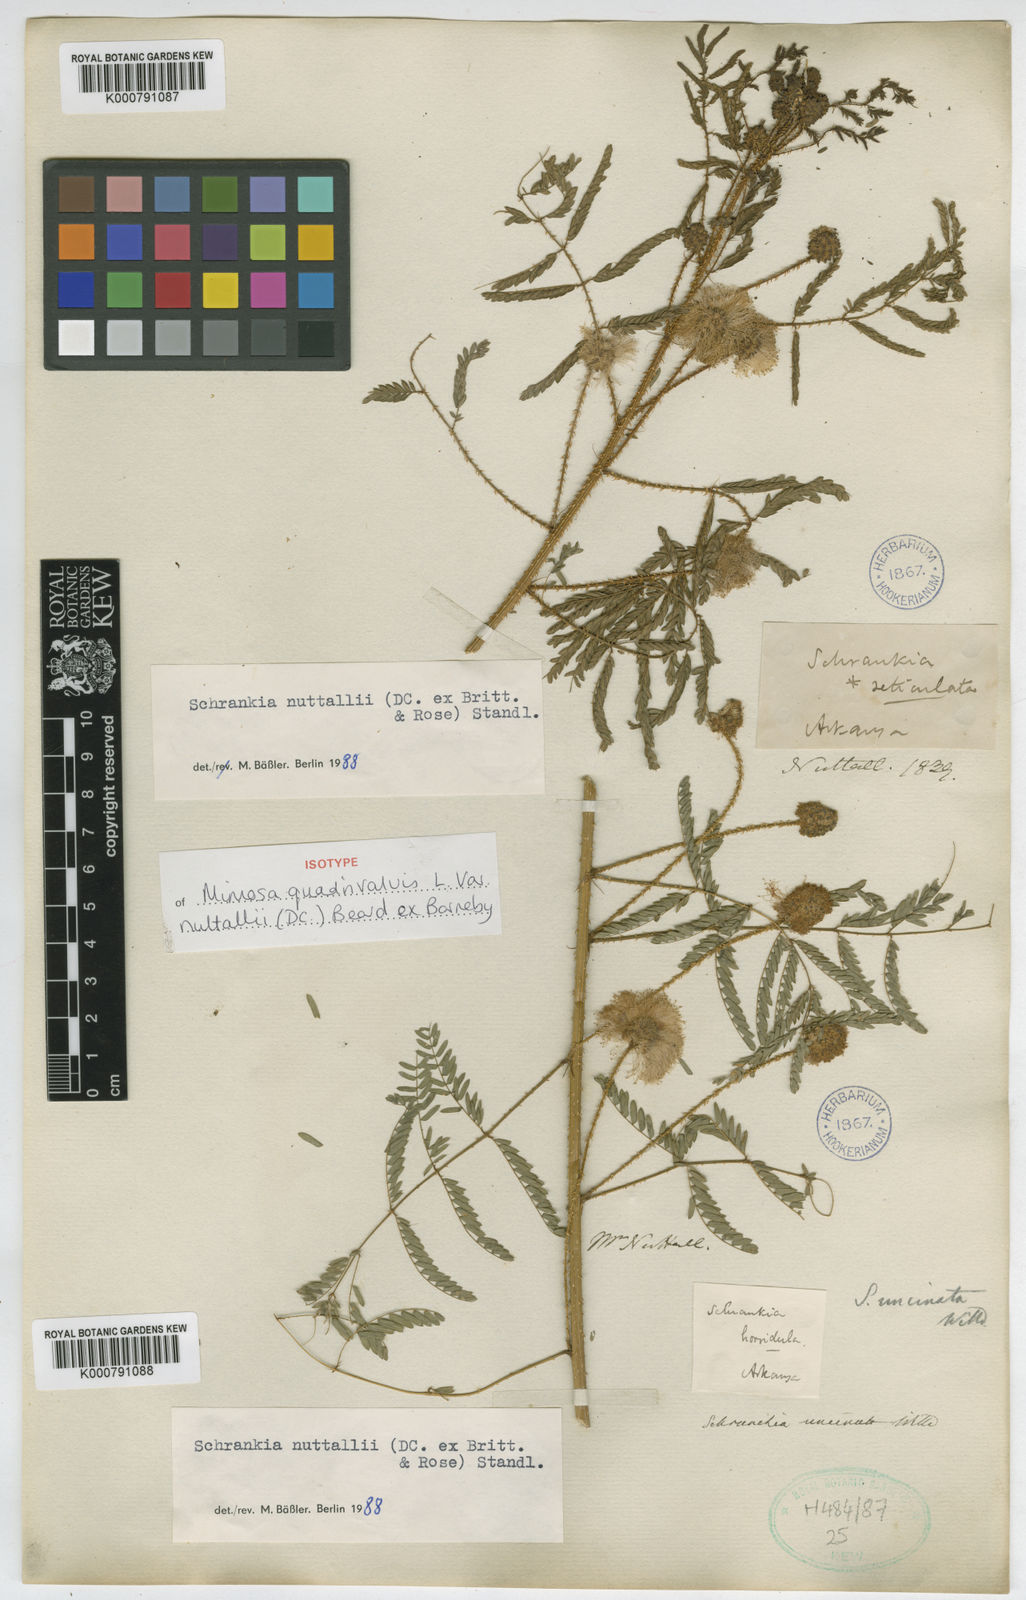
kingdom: Plantae
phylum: Tracheophyta
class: Magnoliopsida
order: Fabales
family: Fabaceae
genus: Mimosa
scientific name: Mimosa quadrivalvis
